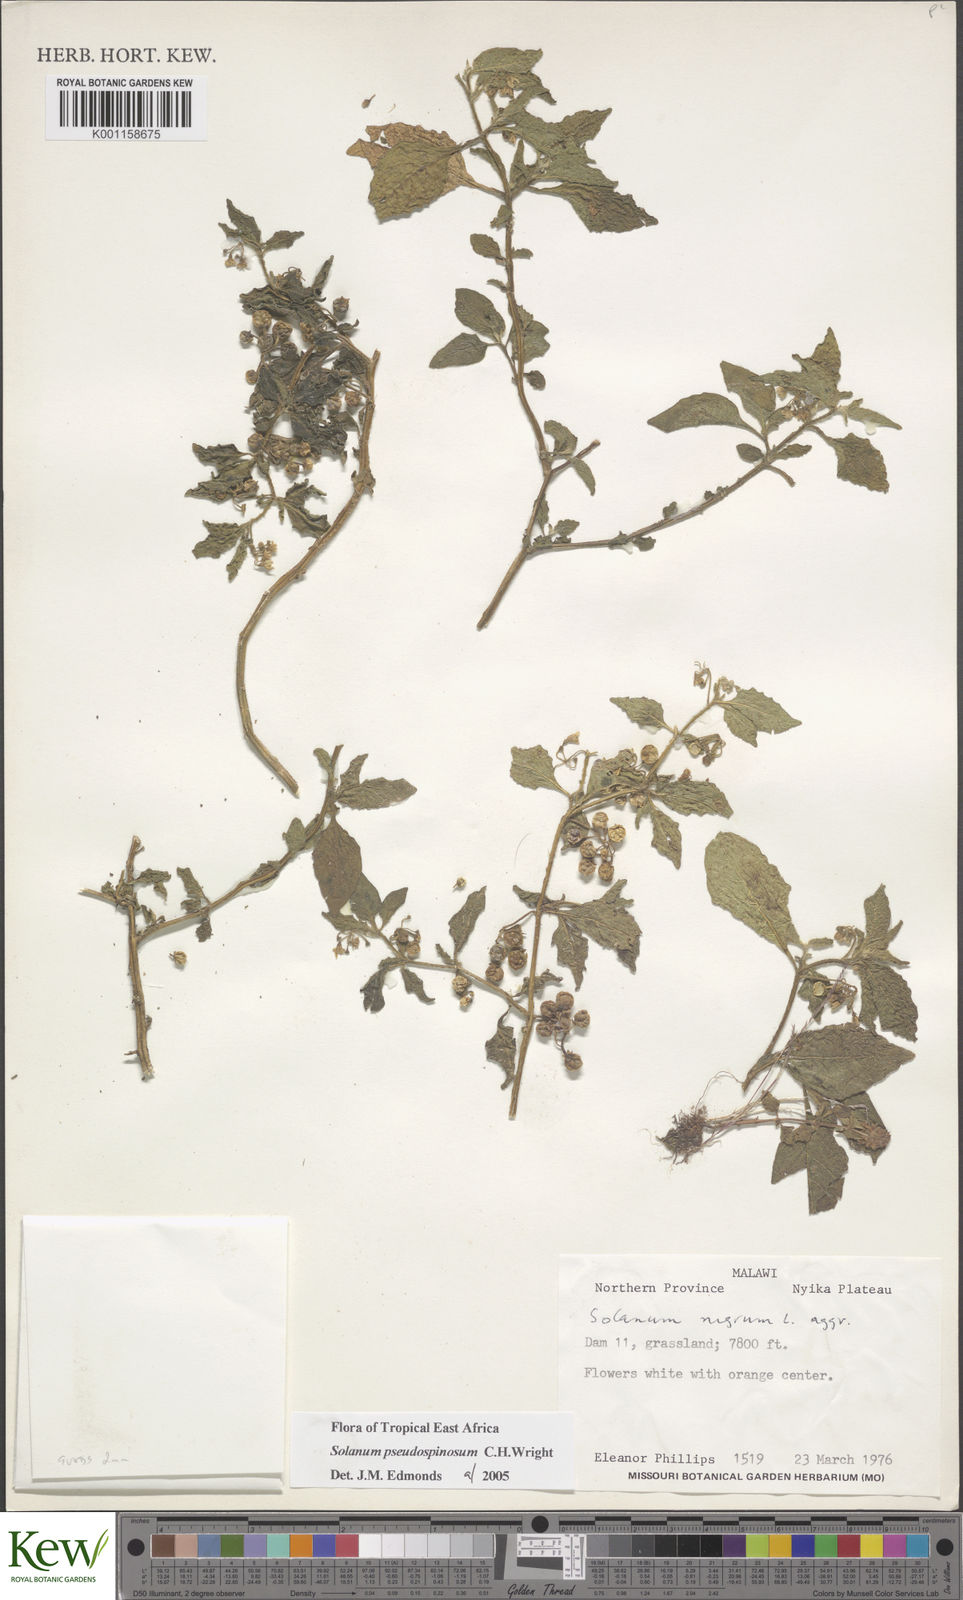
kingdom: Plantae
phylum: Tracheophyta
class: Magnoliopsida
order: Solanales
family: Solanaceae
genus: Solanum
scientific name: Solanum pseudospinosum
